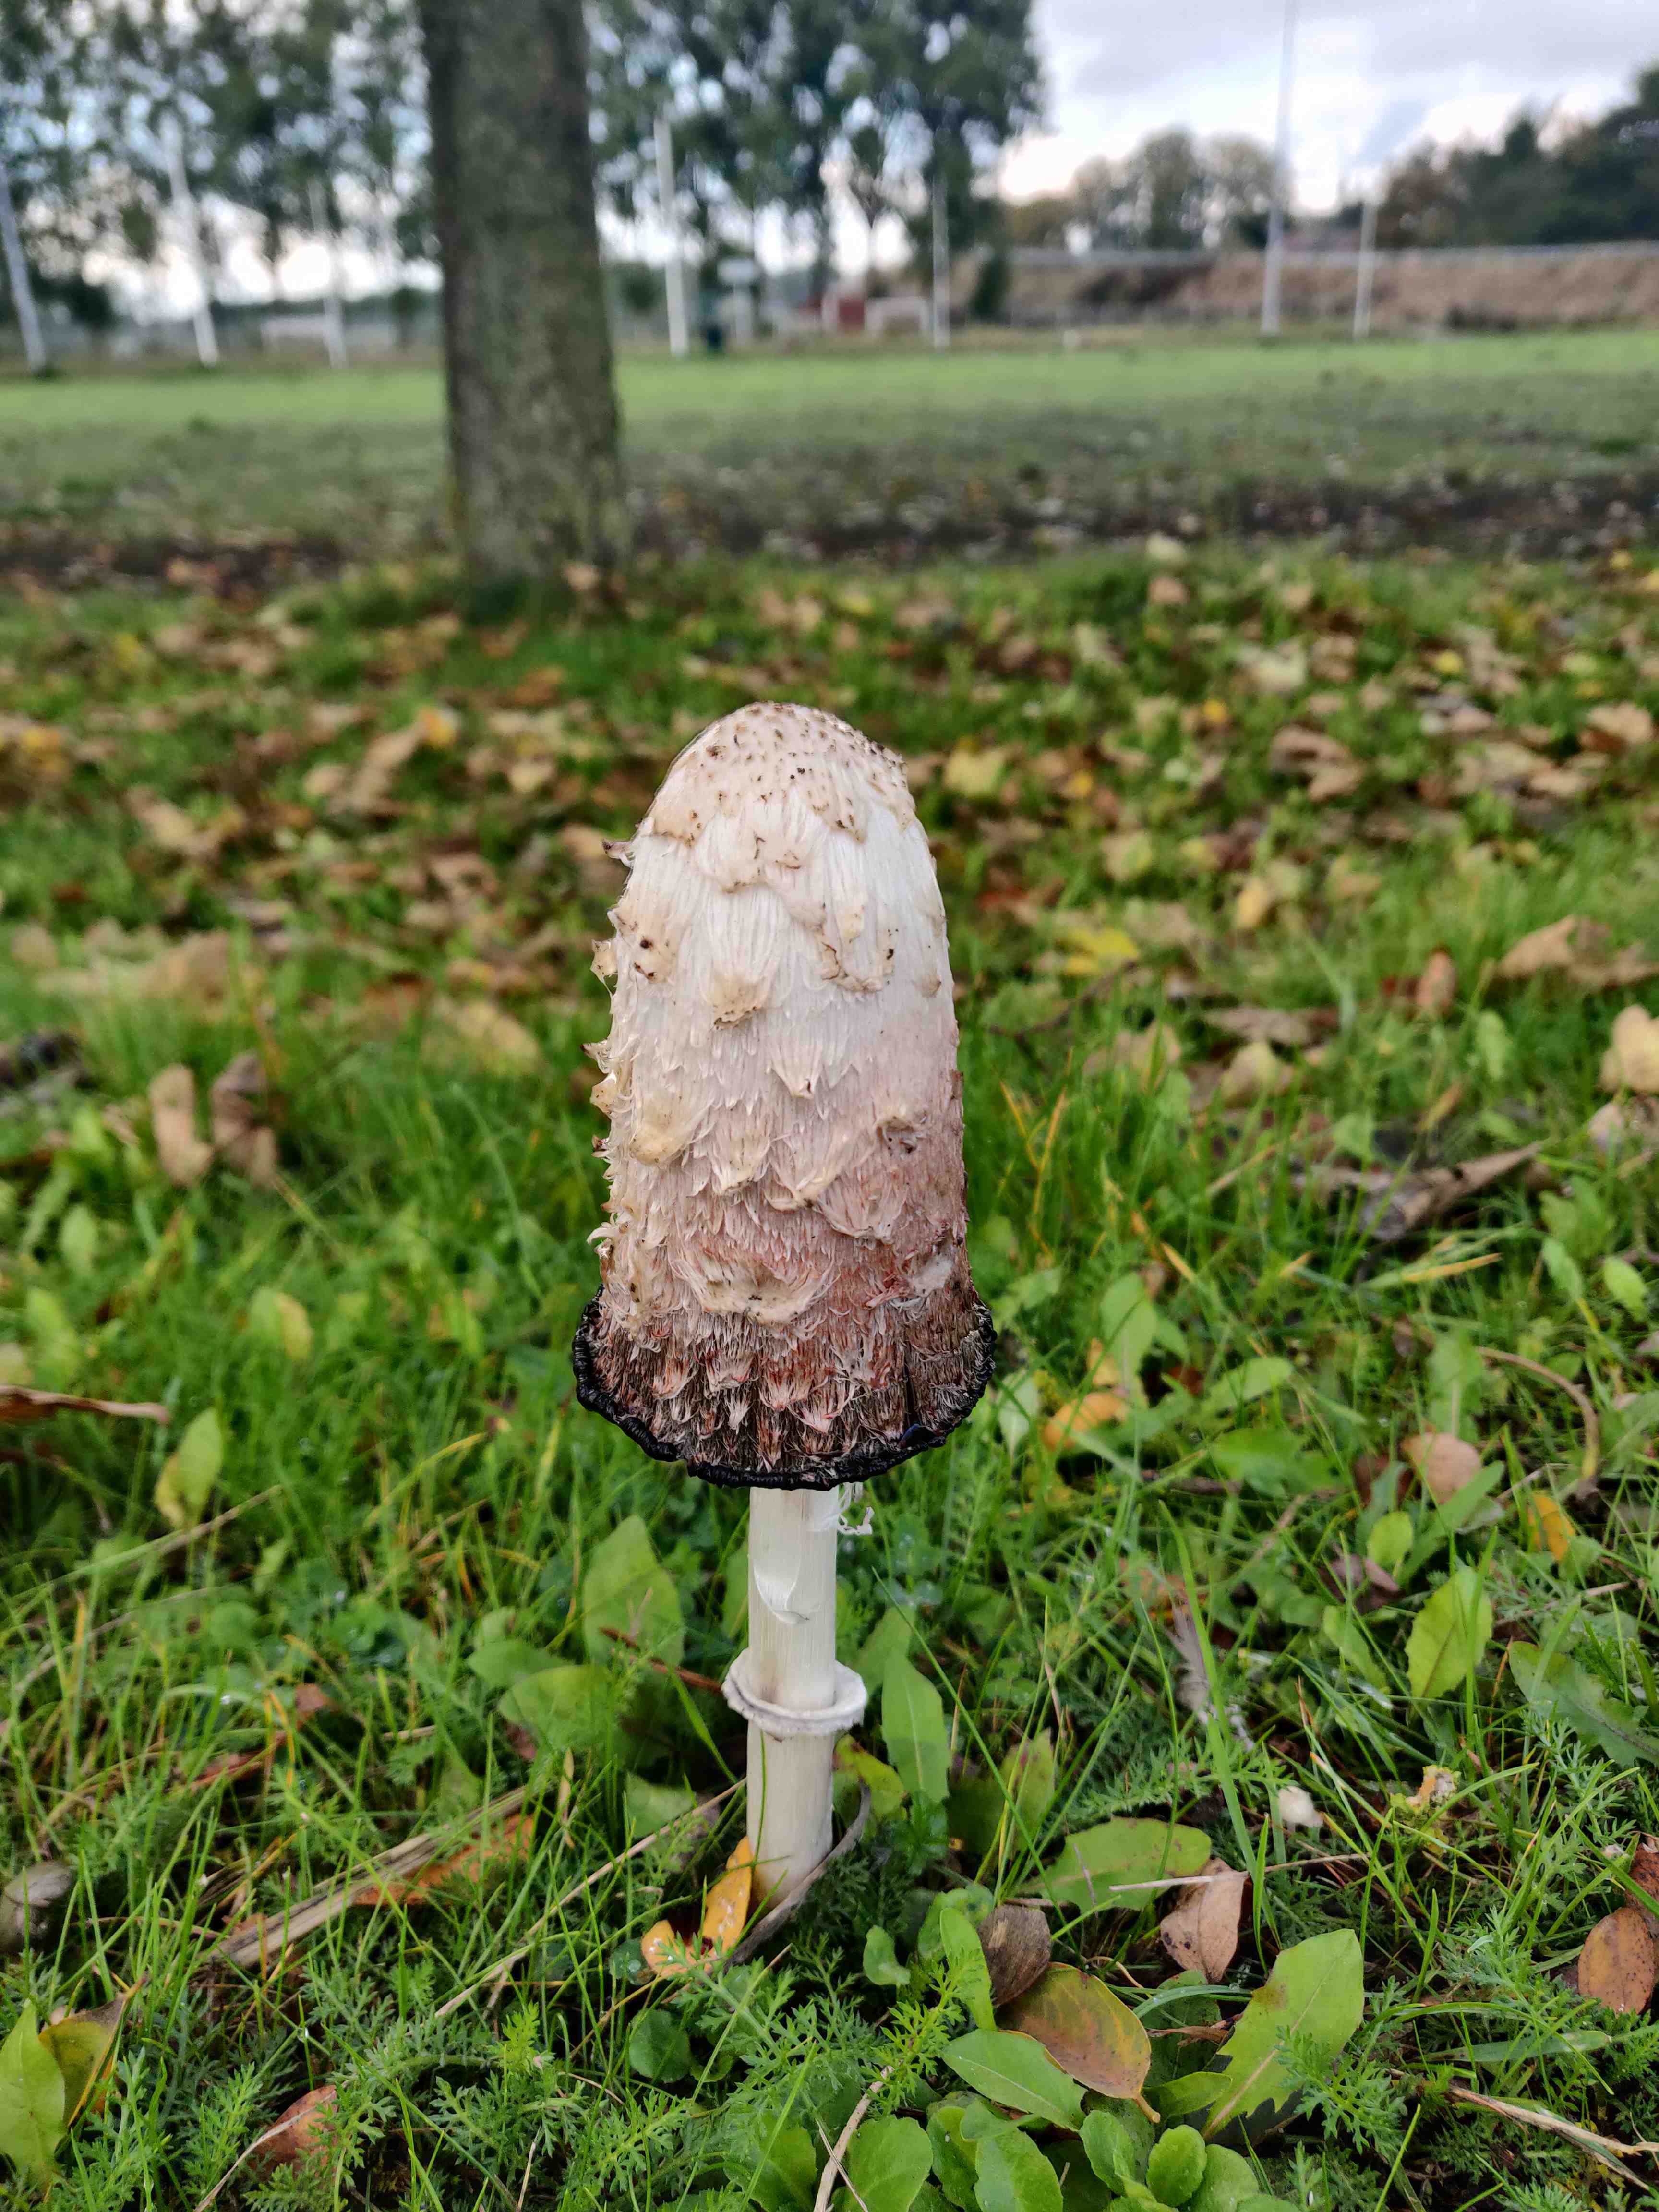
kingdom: Fungi
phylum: Basidiomycota
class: Agaricomycetes
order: Agaricales
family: Agaricaceae
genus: Coprinus
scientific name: Coprinus comatus
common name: stor parykhat
